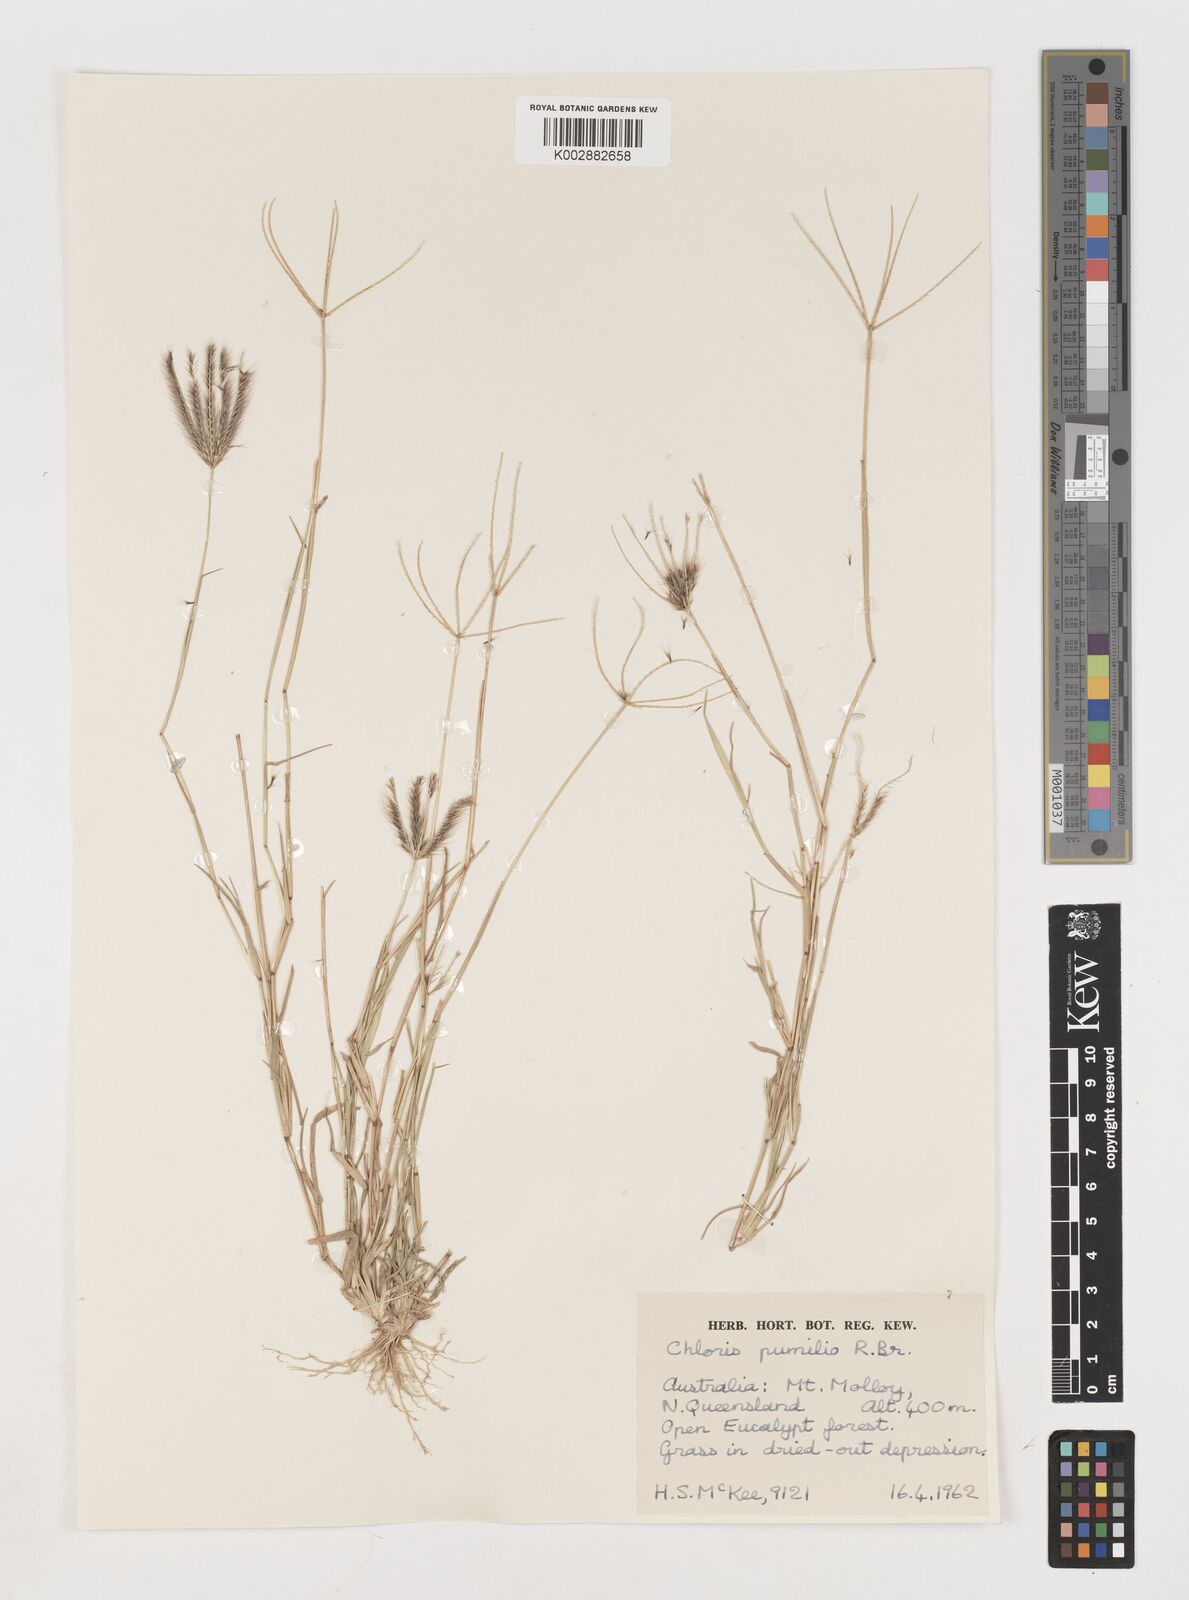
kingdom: Plantae
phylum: Tracheophyta
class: Liliopsida
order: Poales
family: Poaceae
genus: Chloris
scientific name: Chloris lobata
